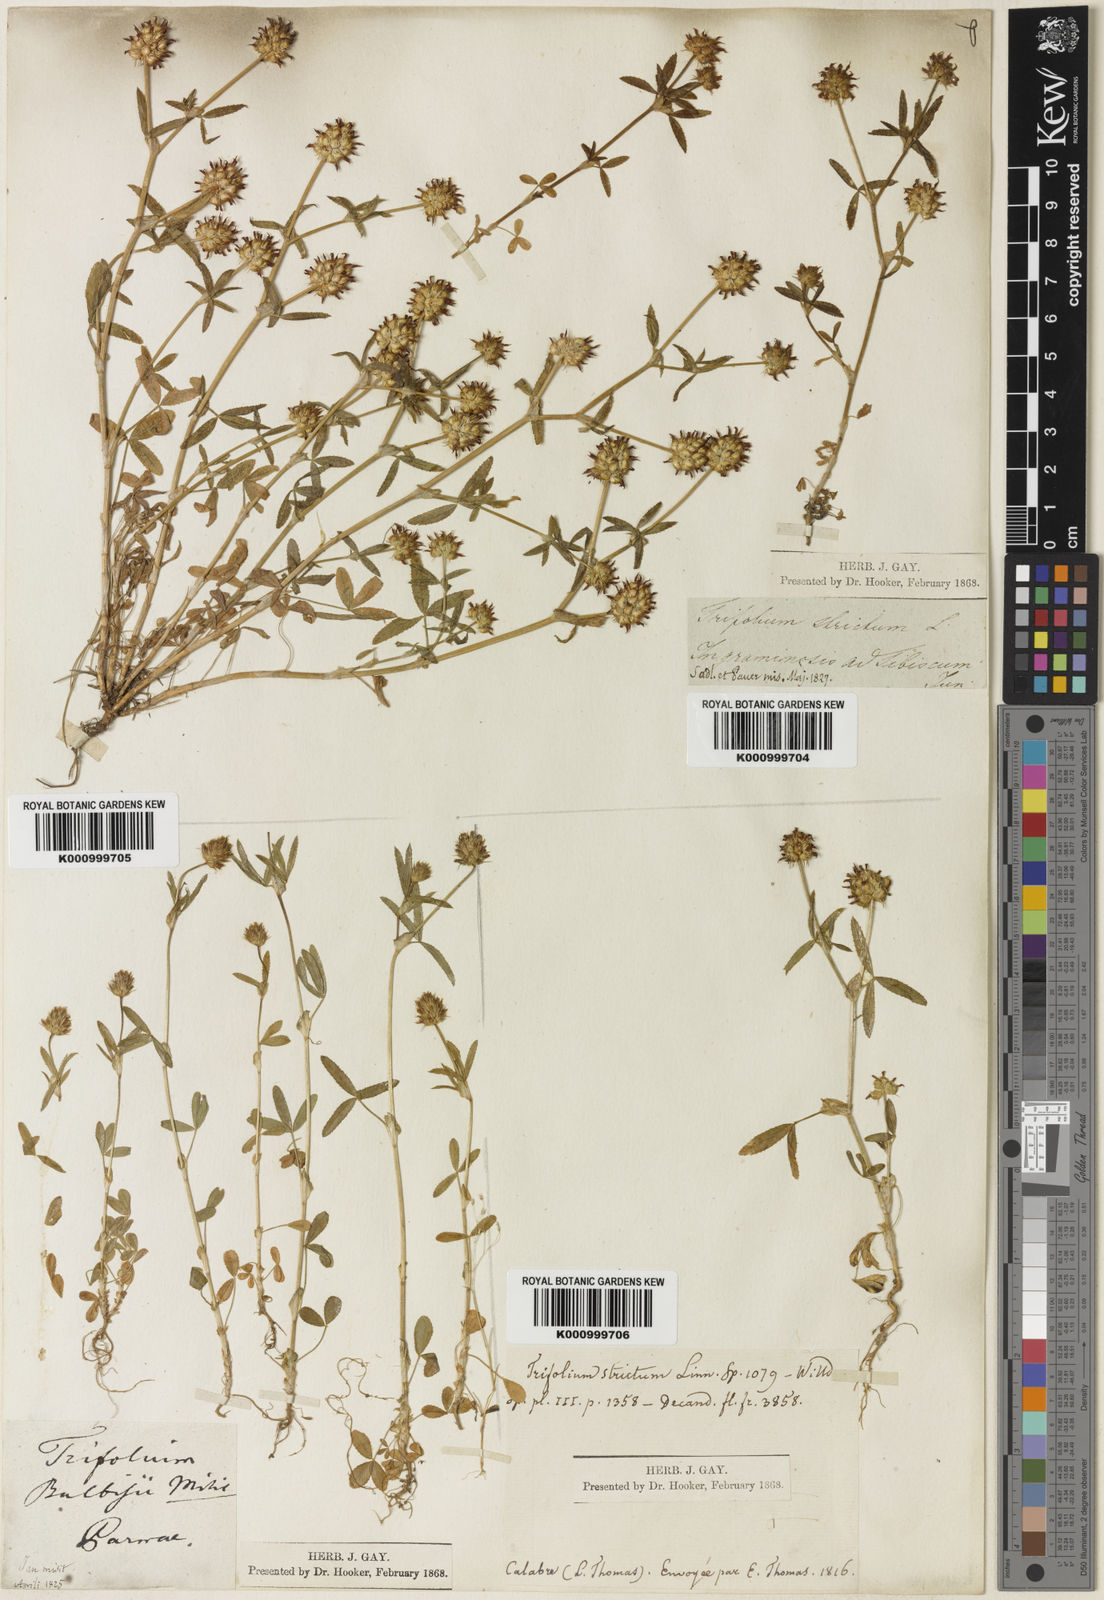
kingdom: Plantae
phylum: Tracheophyta
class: Magnoliopsida
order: Fabales
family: Fabaceae
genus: Trifolium
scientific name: Trifolium strictum
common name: Upright clover
